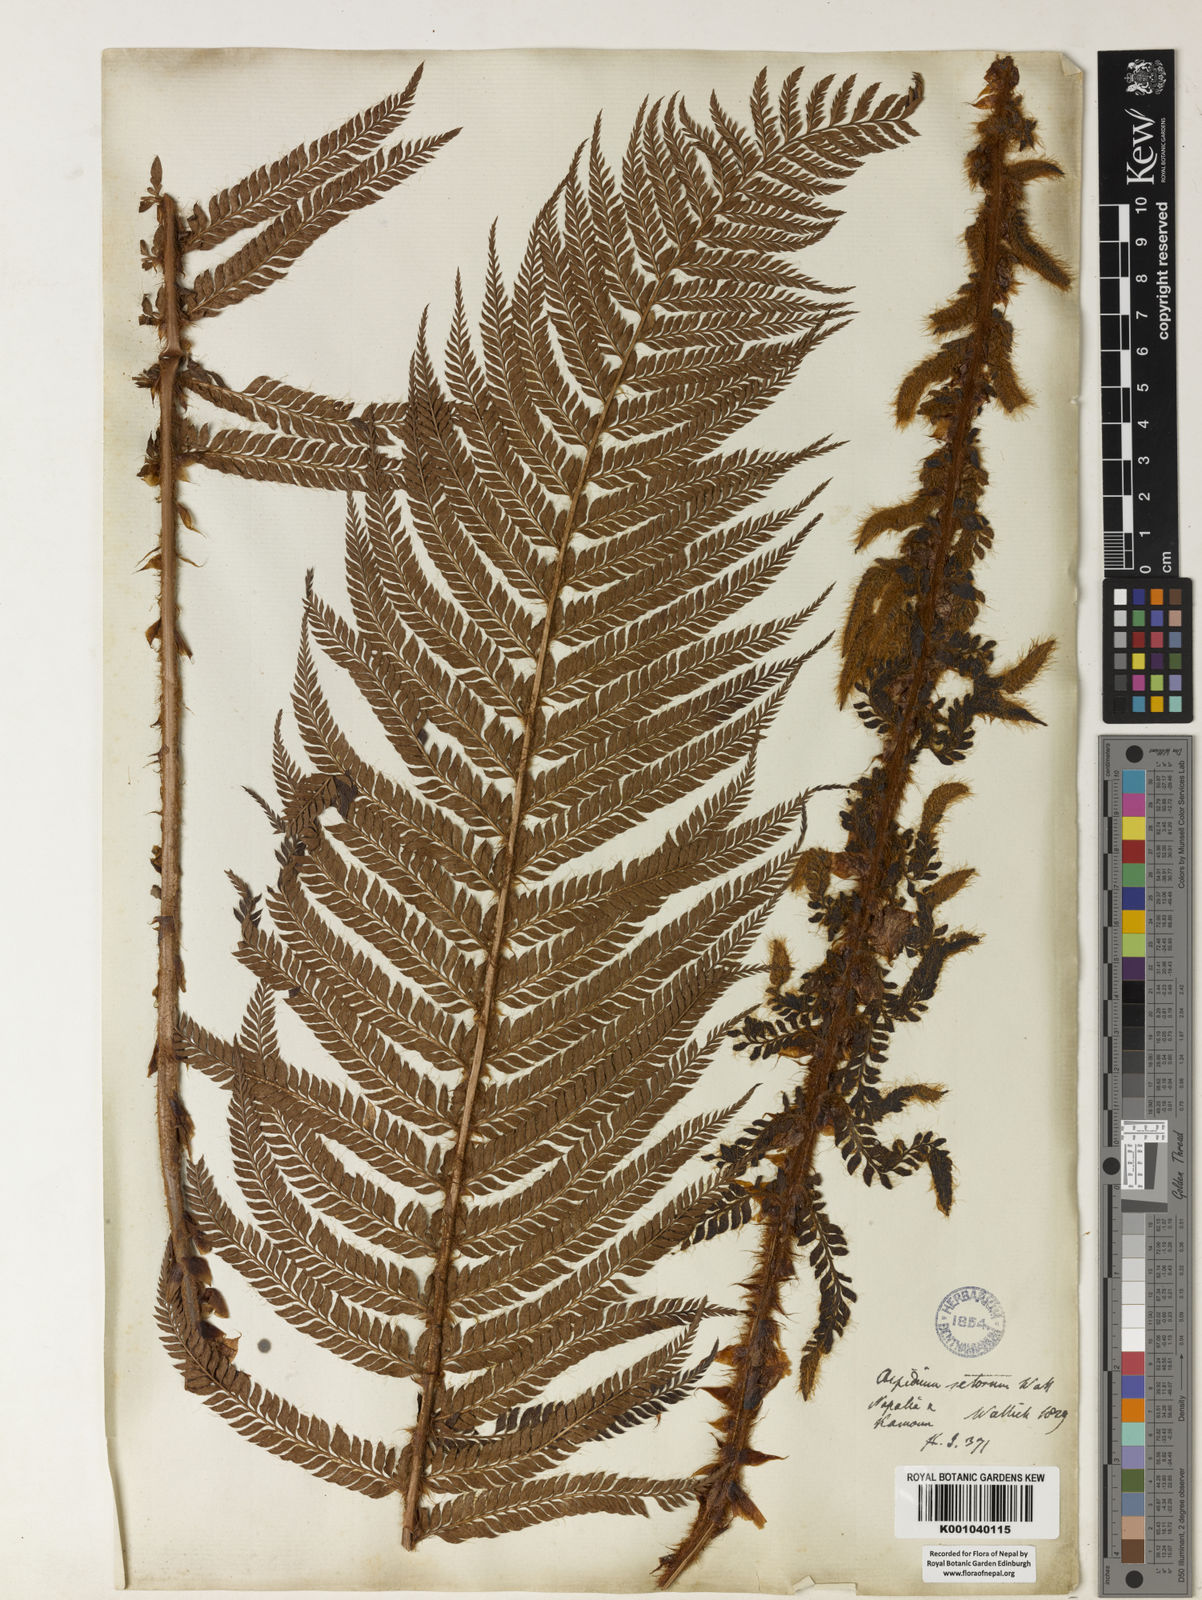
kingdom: Plantae
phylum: Tracheophyta
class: Polypodiopsida
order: Polypodiales
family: Dryopteridaceae
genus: Polystichum
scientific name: Polystichum
